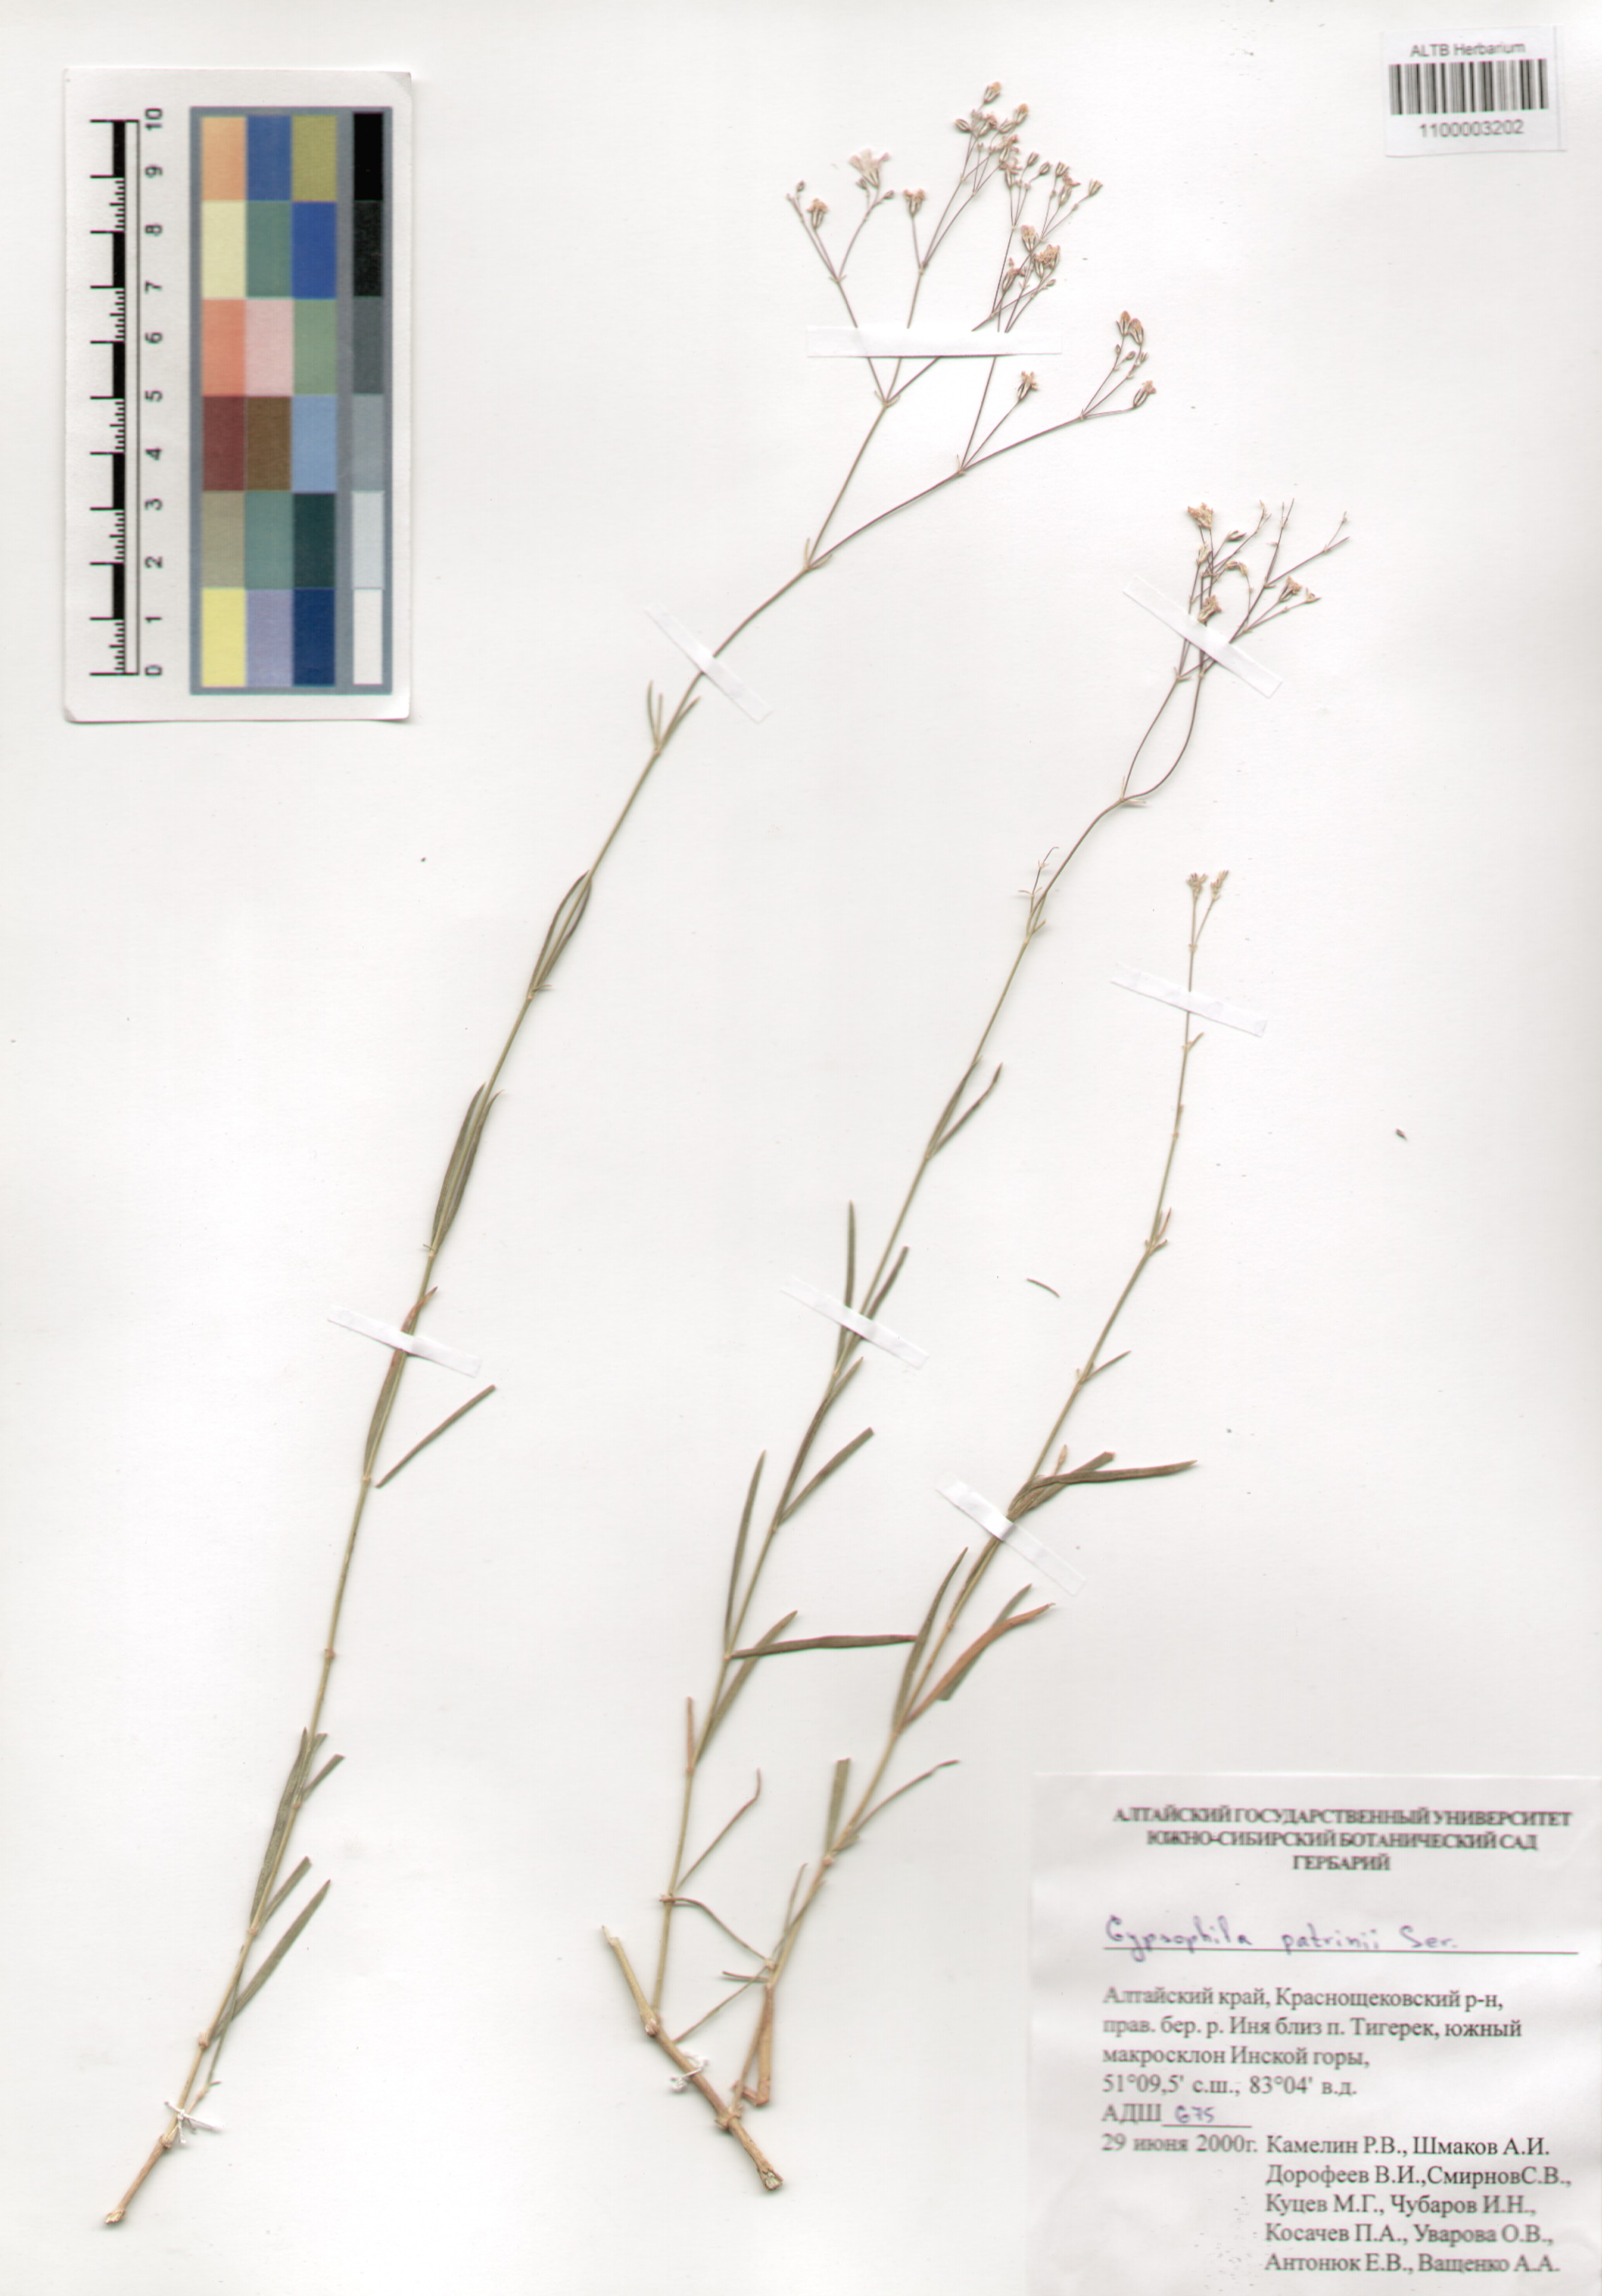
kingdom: Plantae
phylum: Tracheophyta
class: Magnoliopsida
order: Caryophyllales
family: Caryophyllaceae
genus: Gypsophila
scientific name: Gypsophila patrinii
